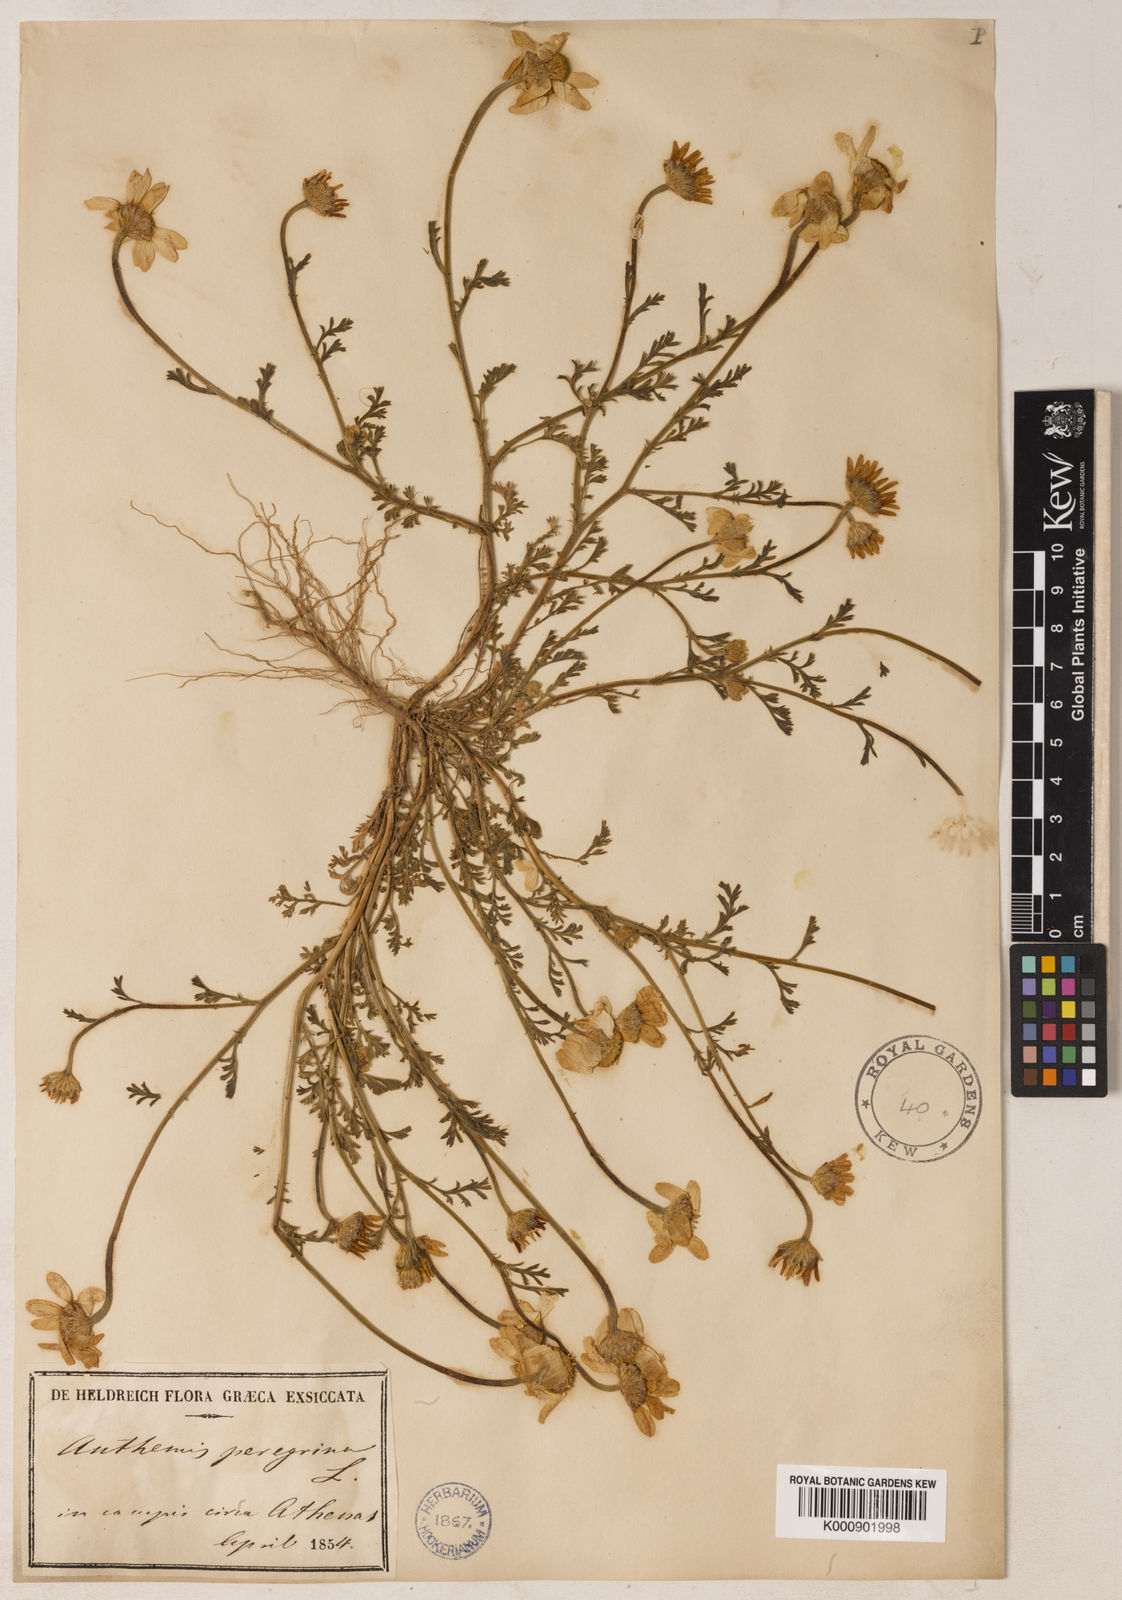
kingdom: Plantae
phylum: Tracheophyta
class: Magnoliopsida
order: Asterales
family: Asteraceae
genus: Anthemis
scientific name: Anthemis tomentosa
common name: Woolly chamomile
